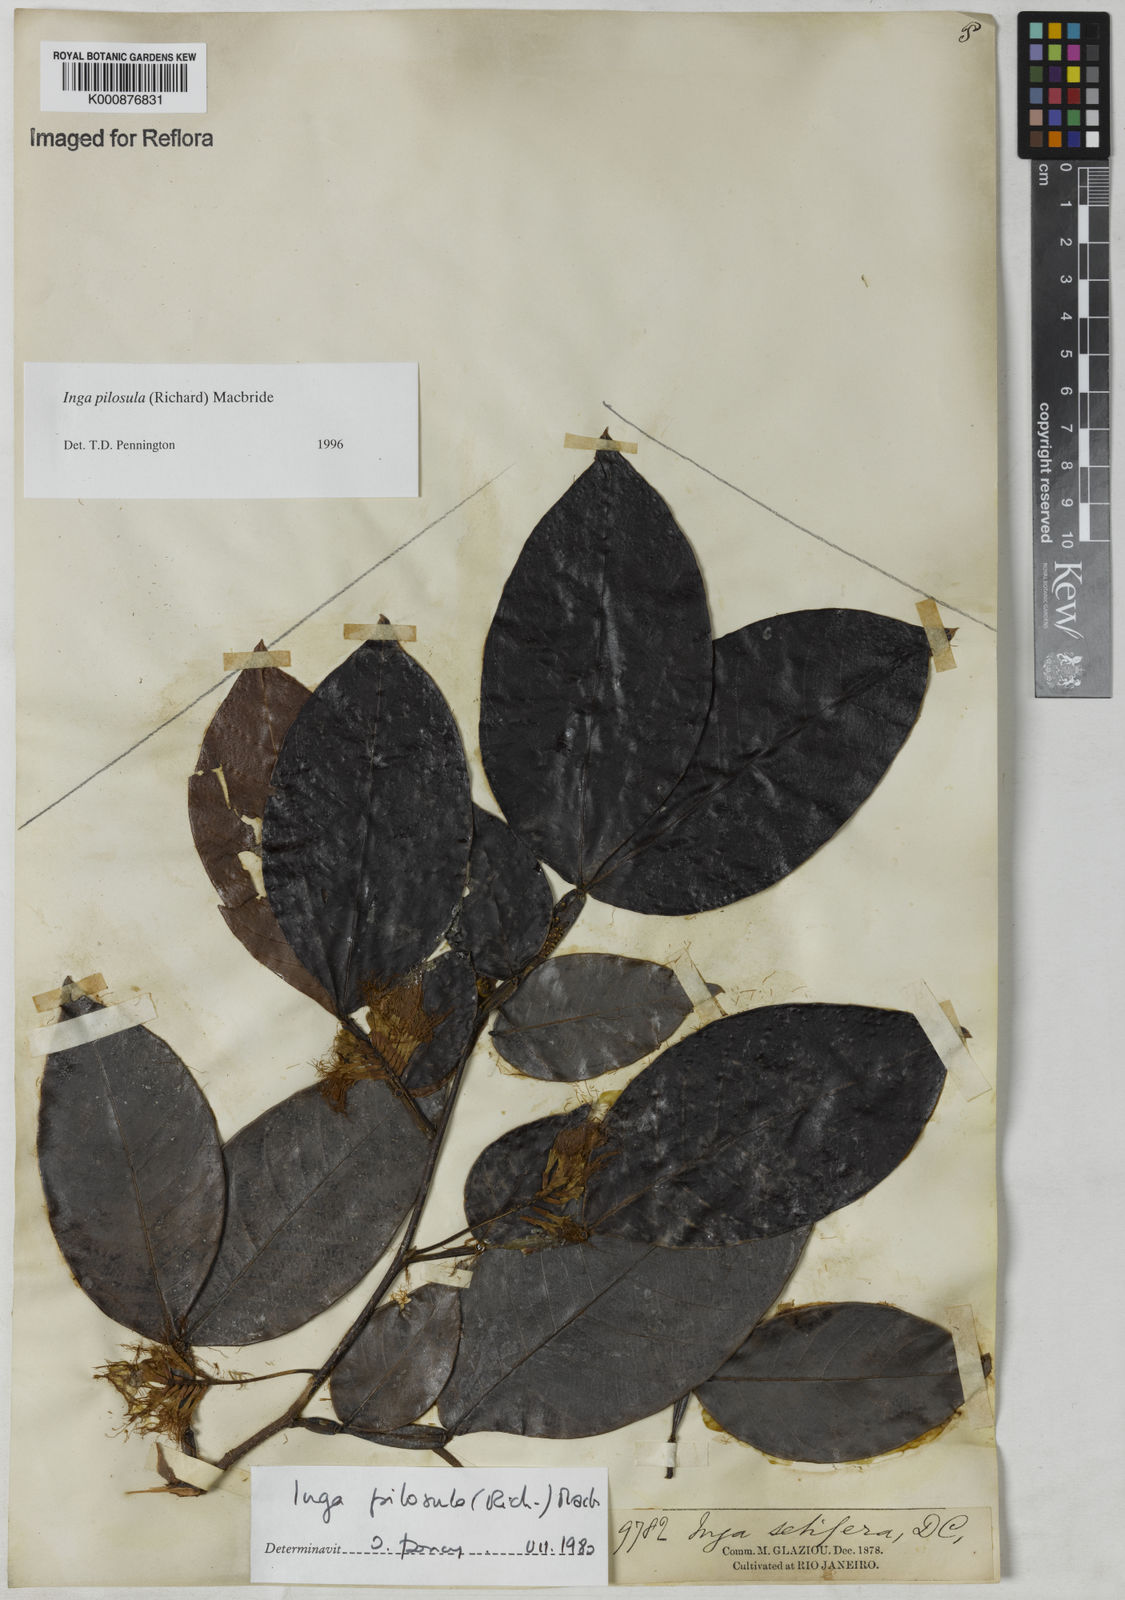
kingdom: Plantae
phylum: Tracheophyta
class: Magnoliopsida
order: Fabales
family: Fabaceae
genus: Inga
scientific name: Inga pilosula
